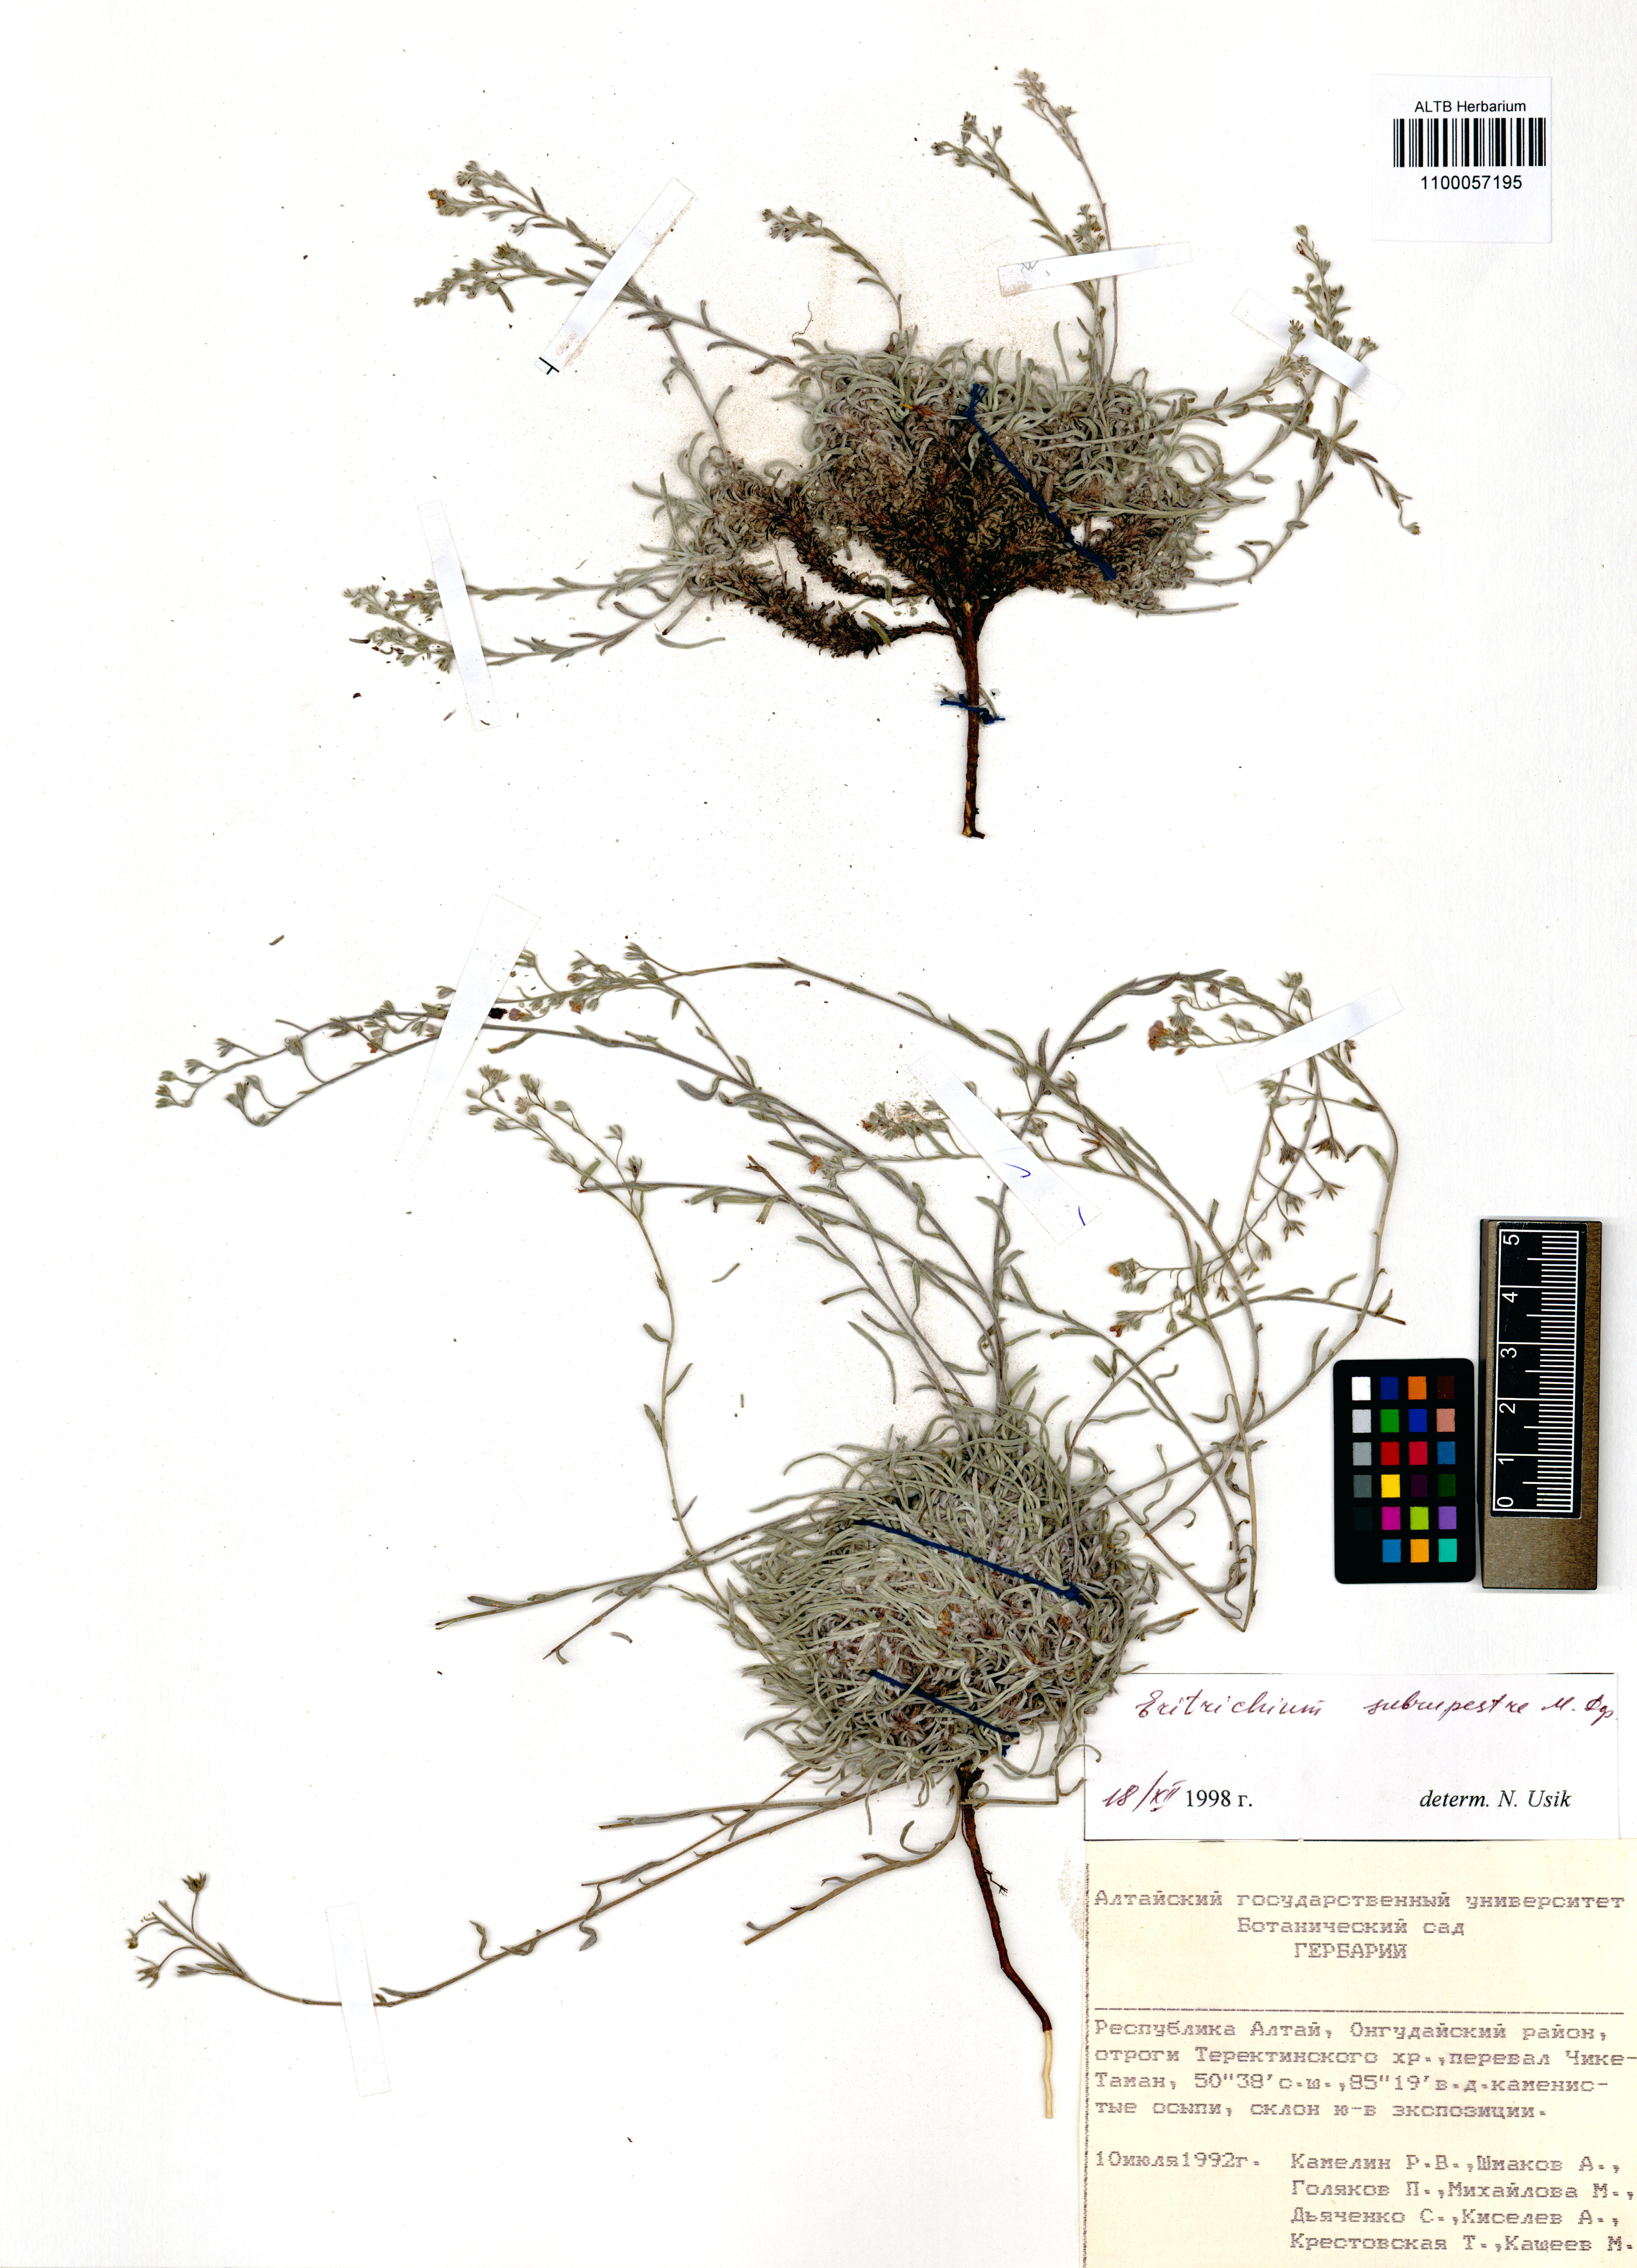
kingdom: Plantae
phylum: Tracheophyta
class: Magnoliopsida
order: Boraginales
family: Boraginaceae
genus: Eritrichium
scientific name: Eritrichium pauciflorum
